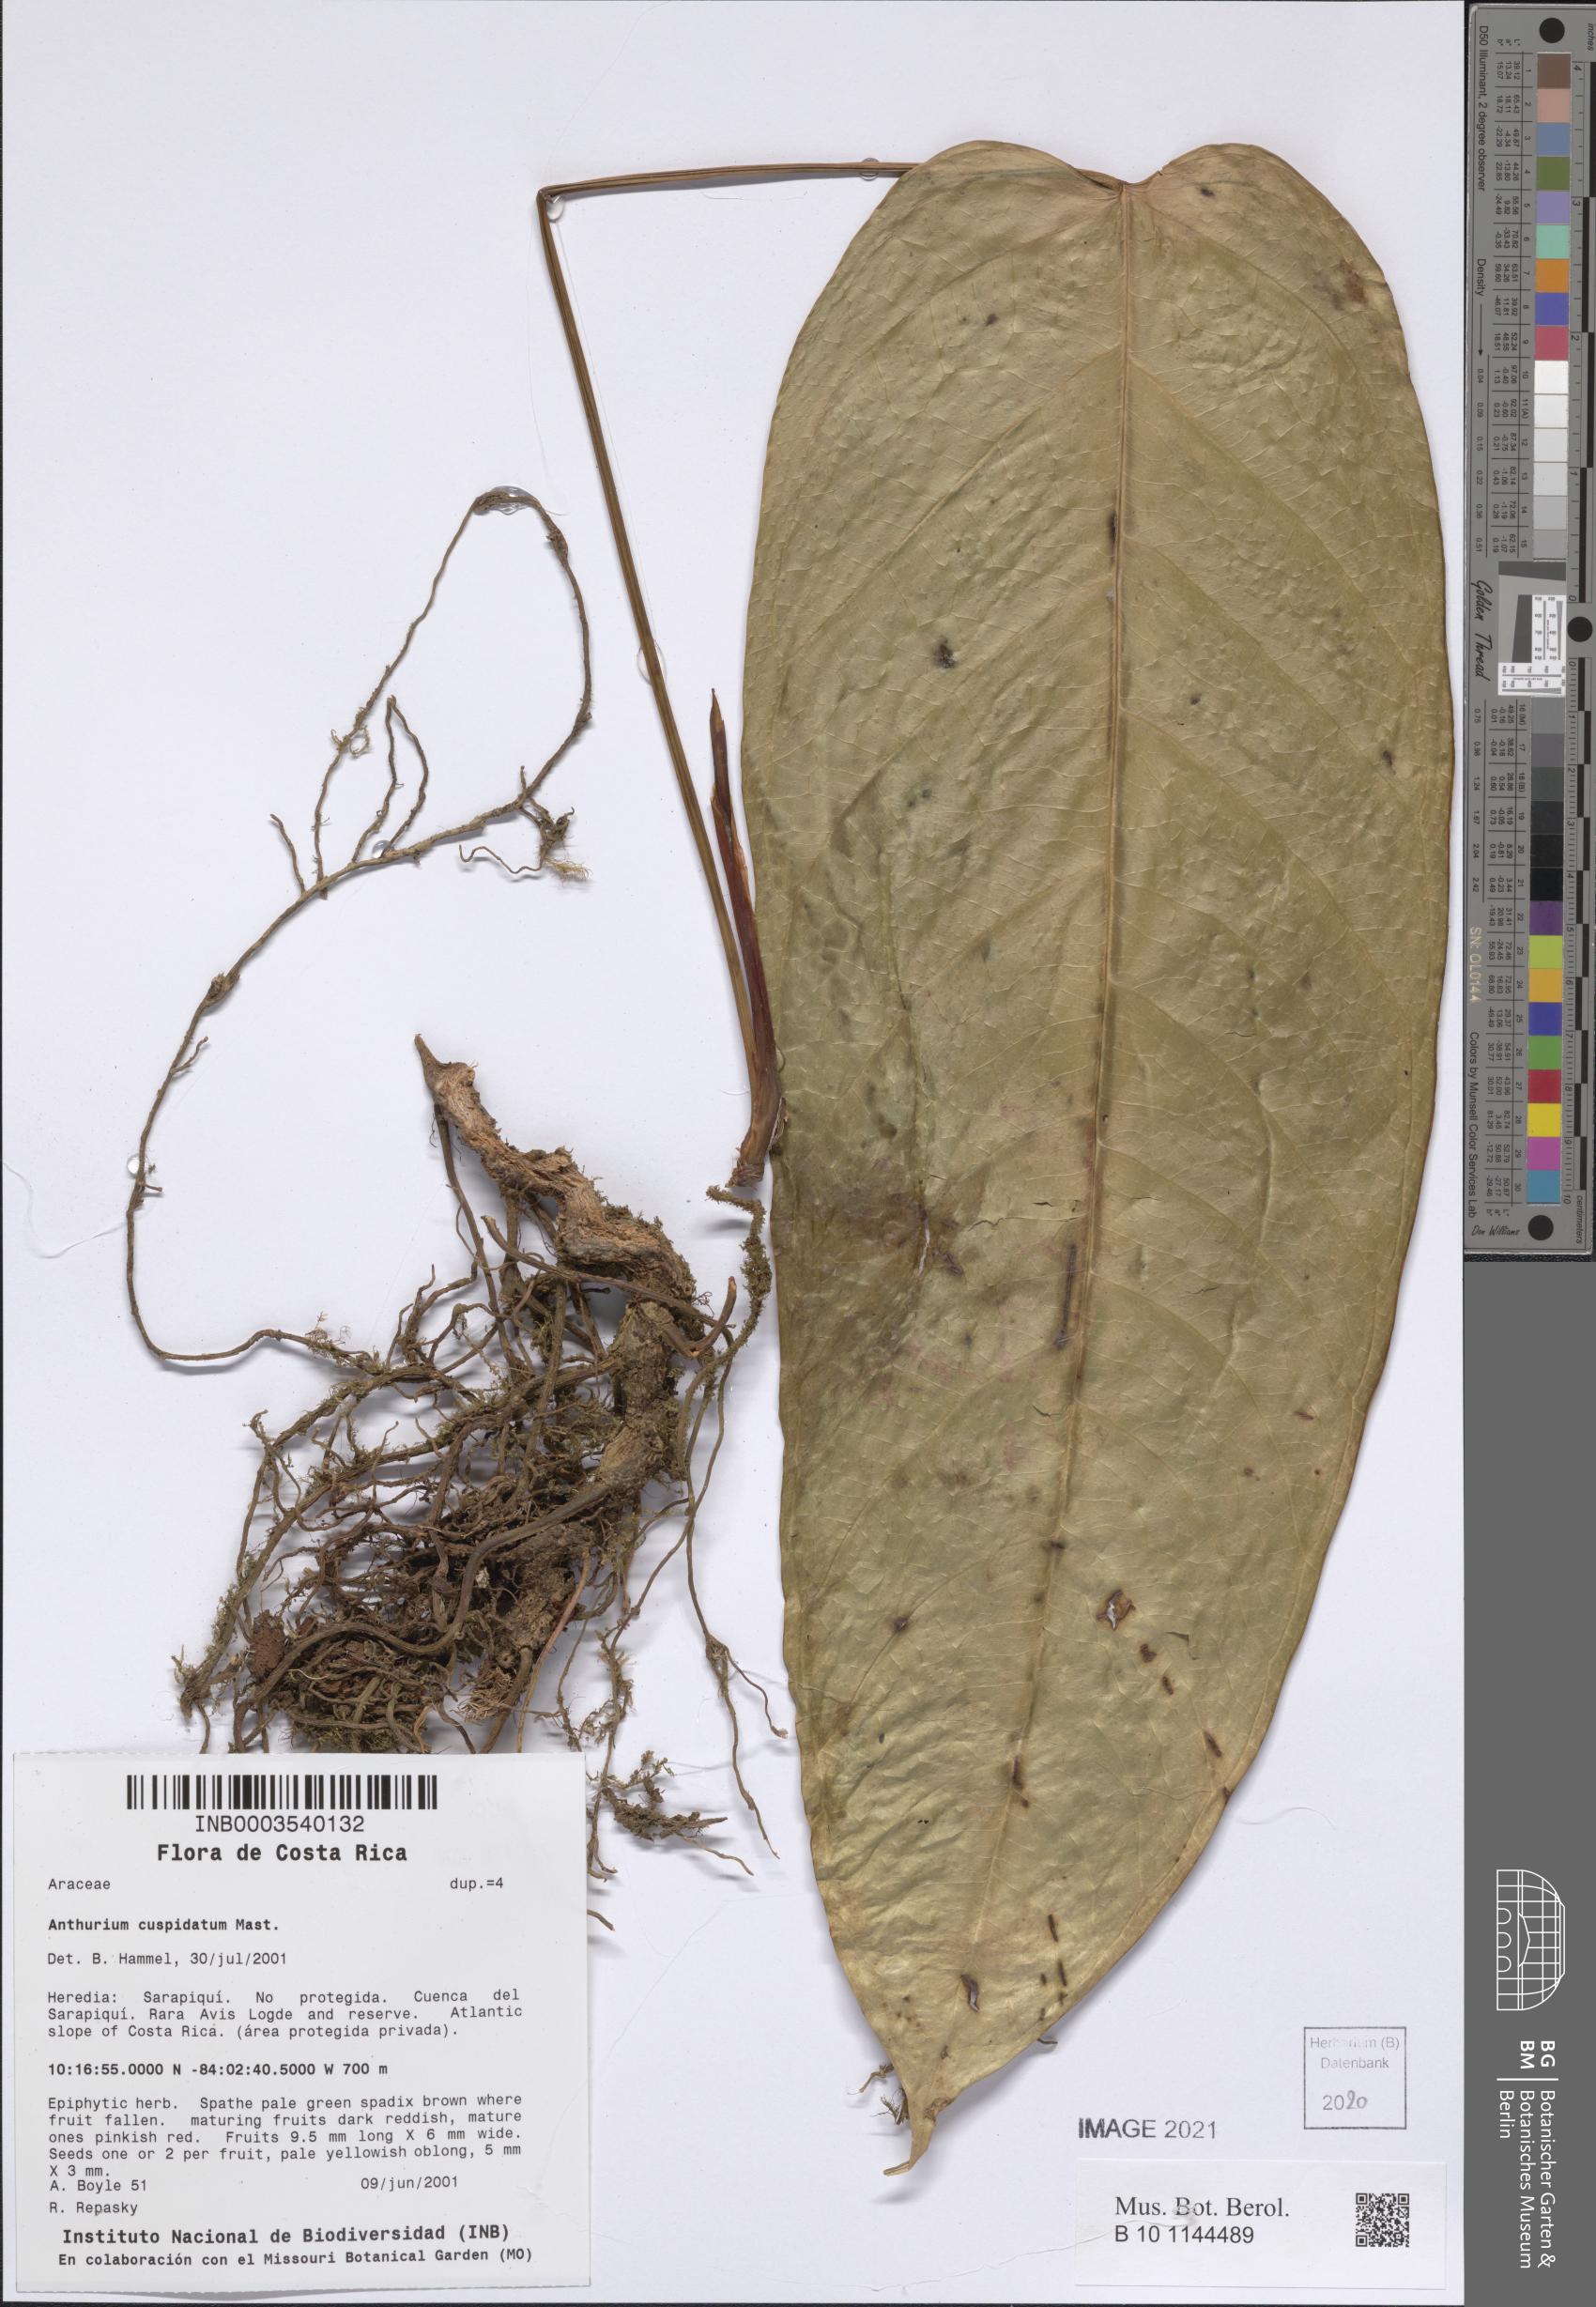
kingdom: Plantae
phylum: Tracheophyta
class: Liliopsida
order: Alismatales
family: Araceae
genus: Anthurium
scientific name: Anthurium cuspidatum
